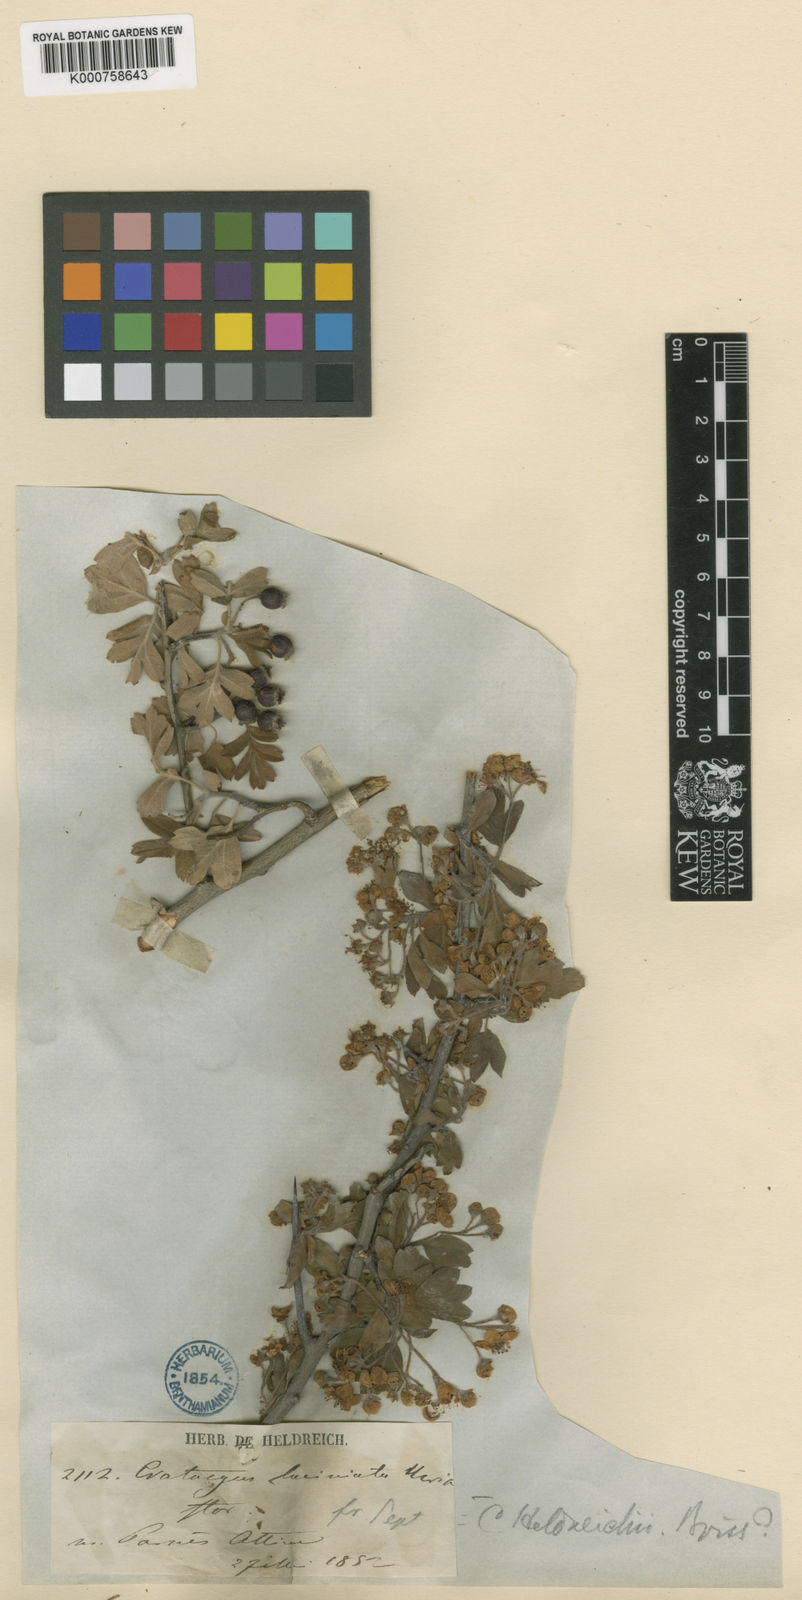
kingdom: Plantae
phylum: Tracheophyta
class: Magnoliopsida
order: Rosales
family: Rosaceae
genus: Crataegus
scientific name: Crataegus heldreichii
